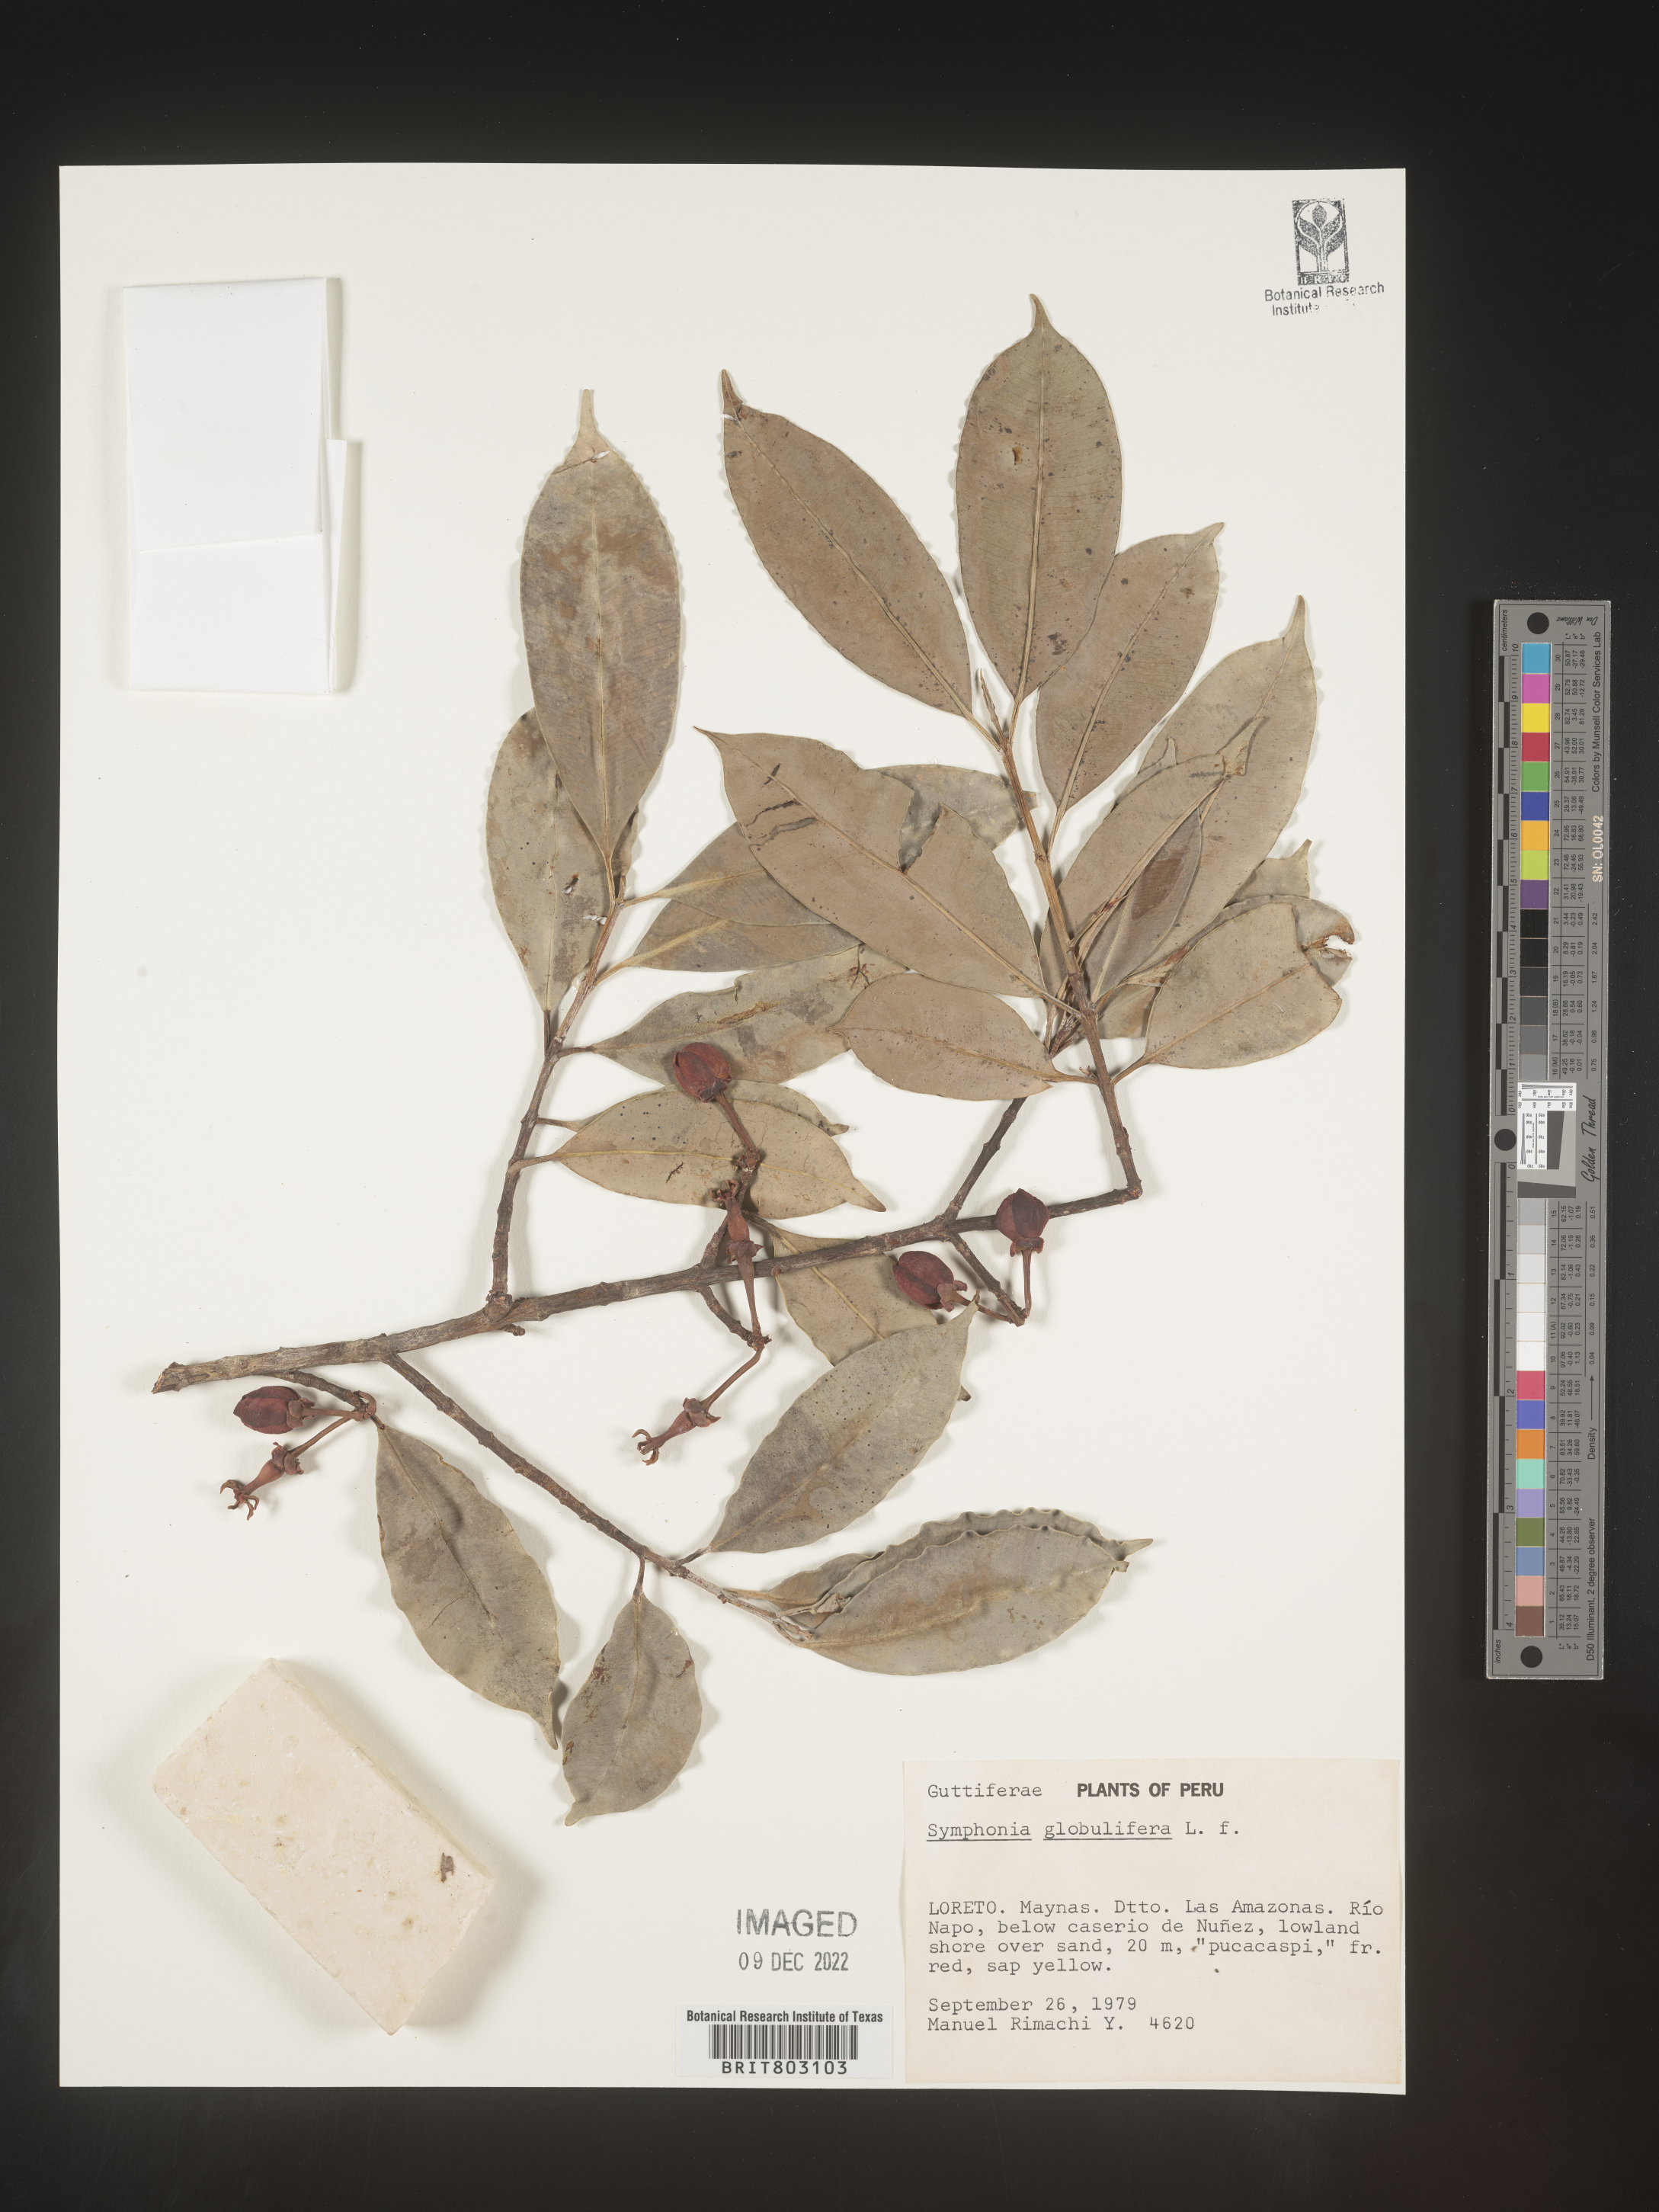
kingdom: Plantae
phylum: Tracheophyta
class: Magnoliopsida
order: Malpighiales
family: Clusiaceae
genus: Symphonia
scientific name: Symphonia
